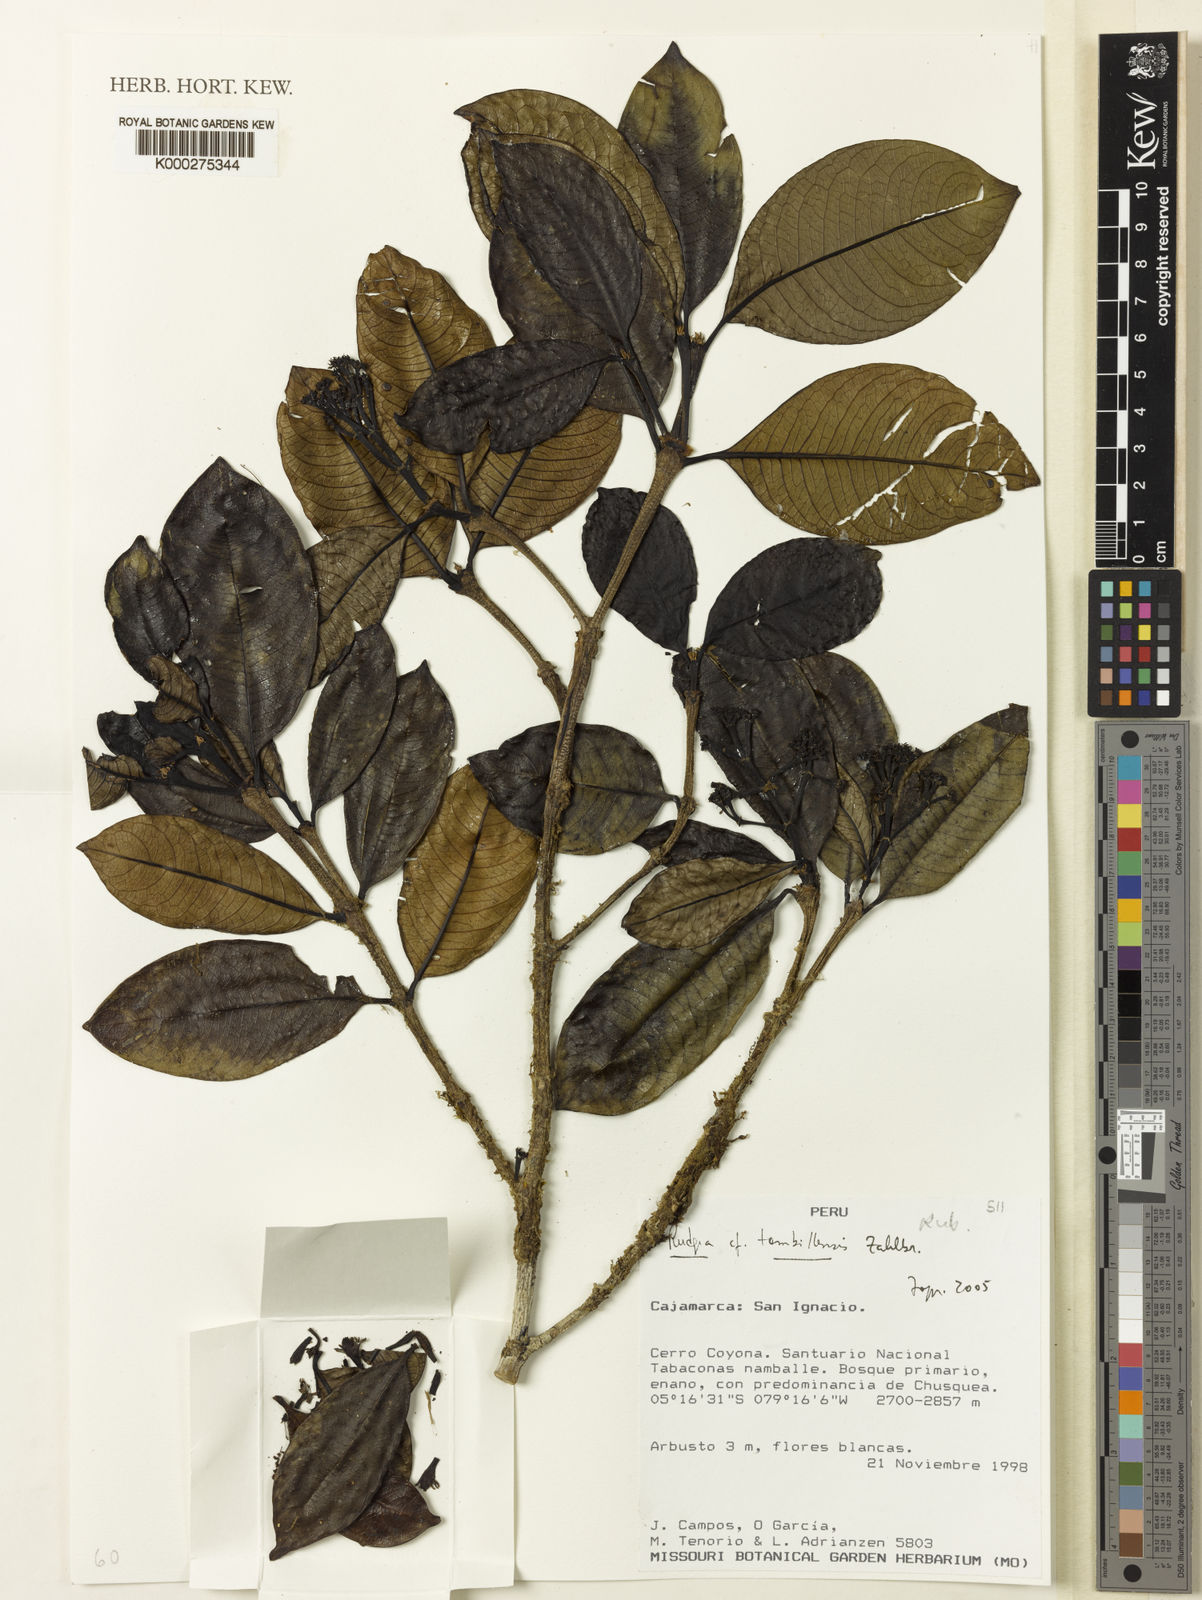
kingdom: Plantae
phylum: Tracheophyta
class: Magnoliopsida
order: Gentianales
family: Rubiaceae
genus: Rudgea
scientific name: Rudgea tambillensis
